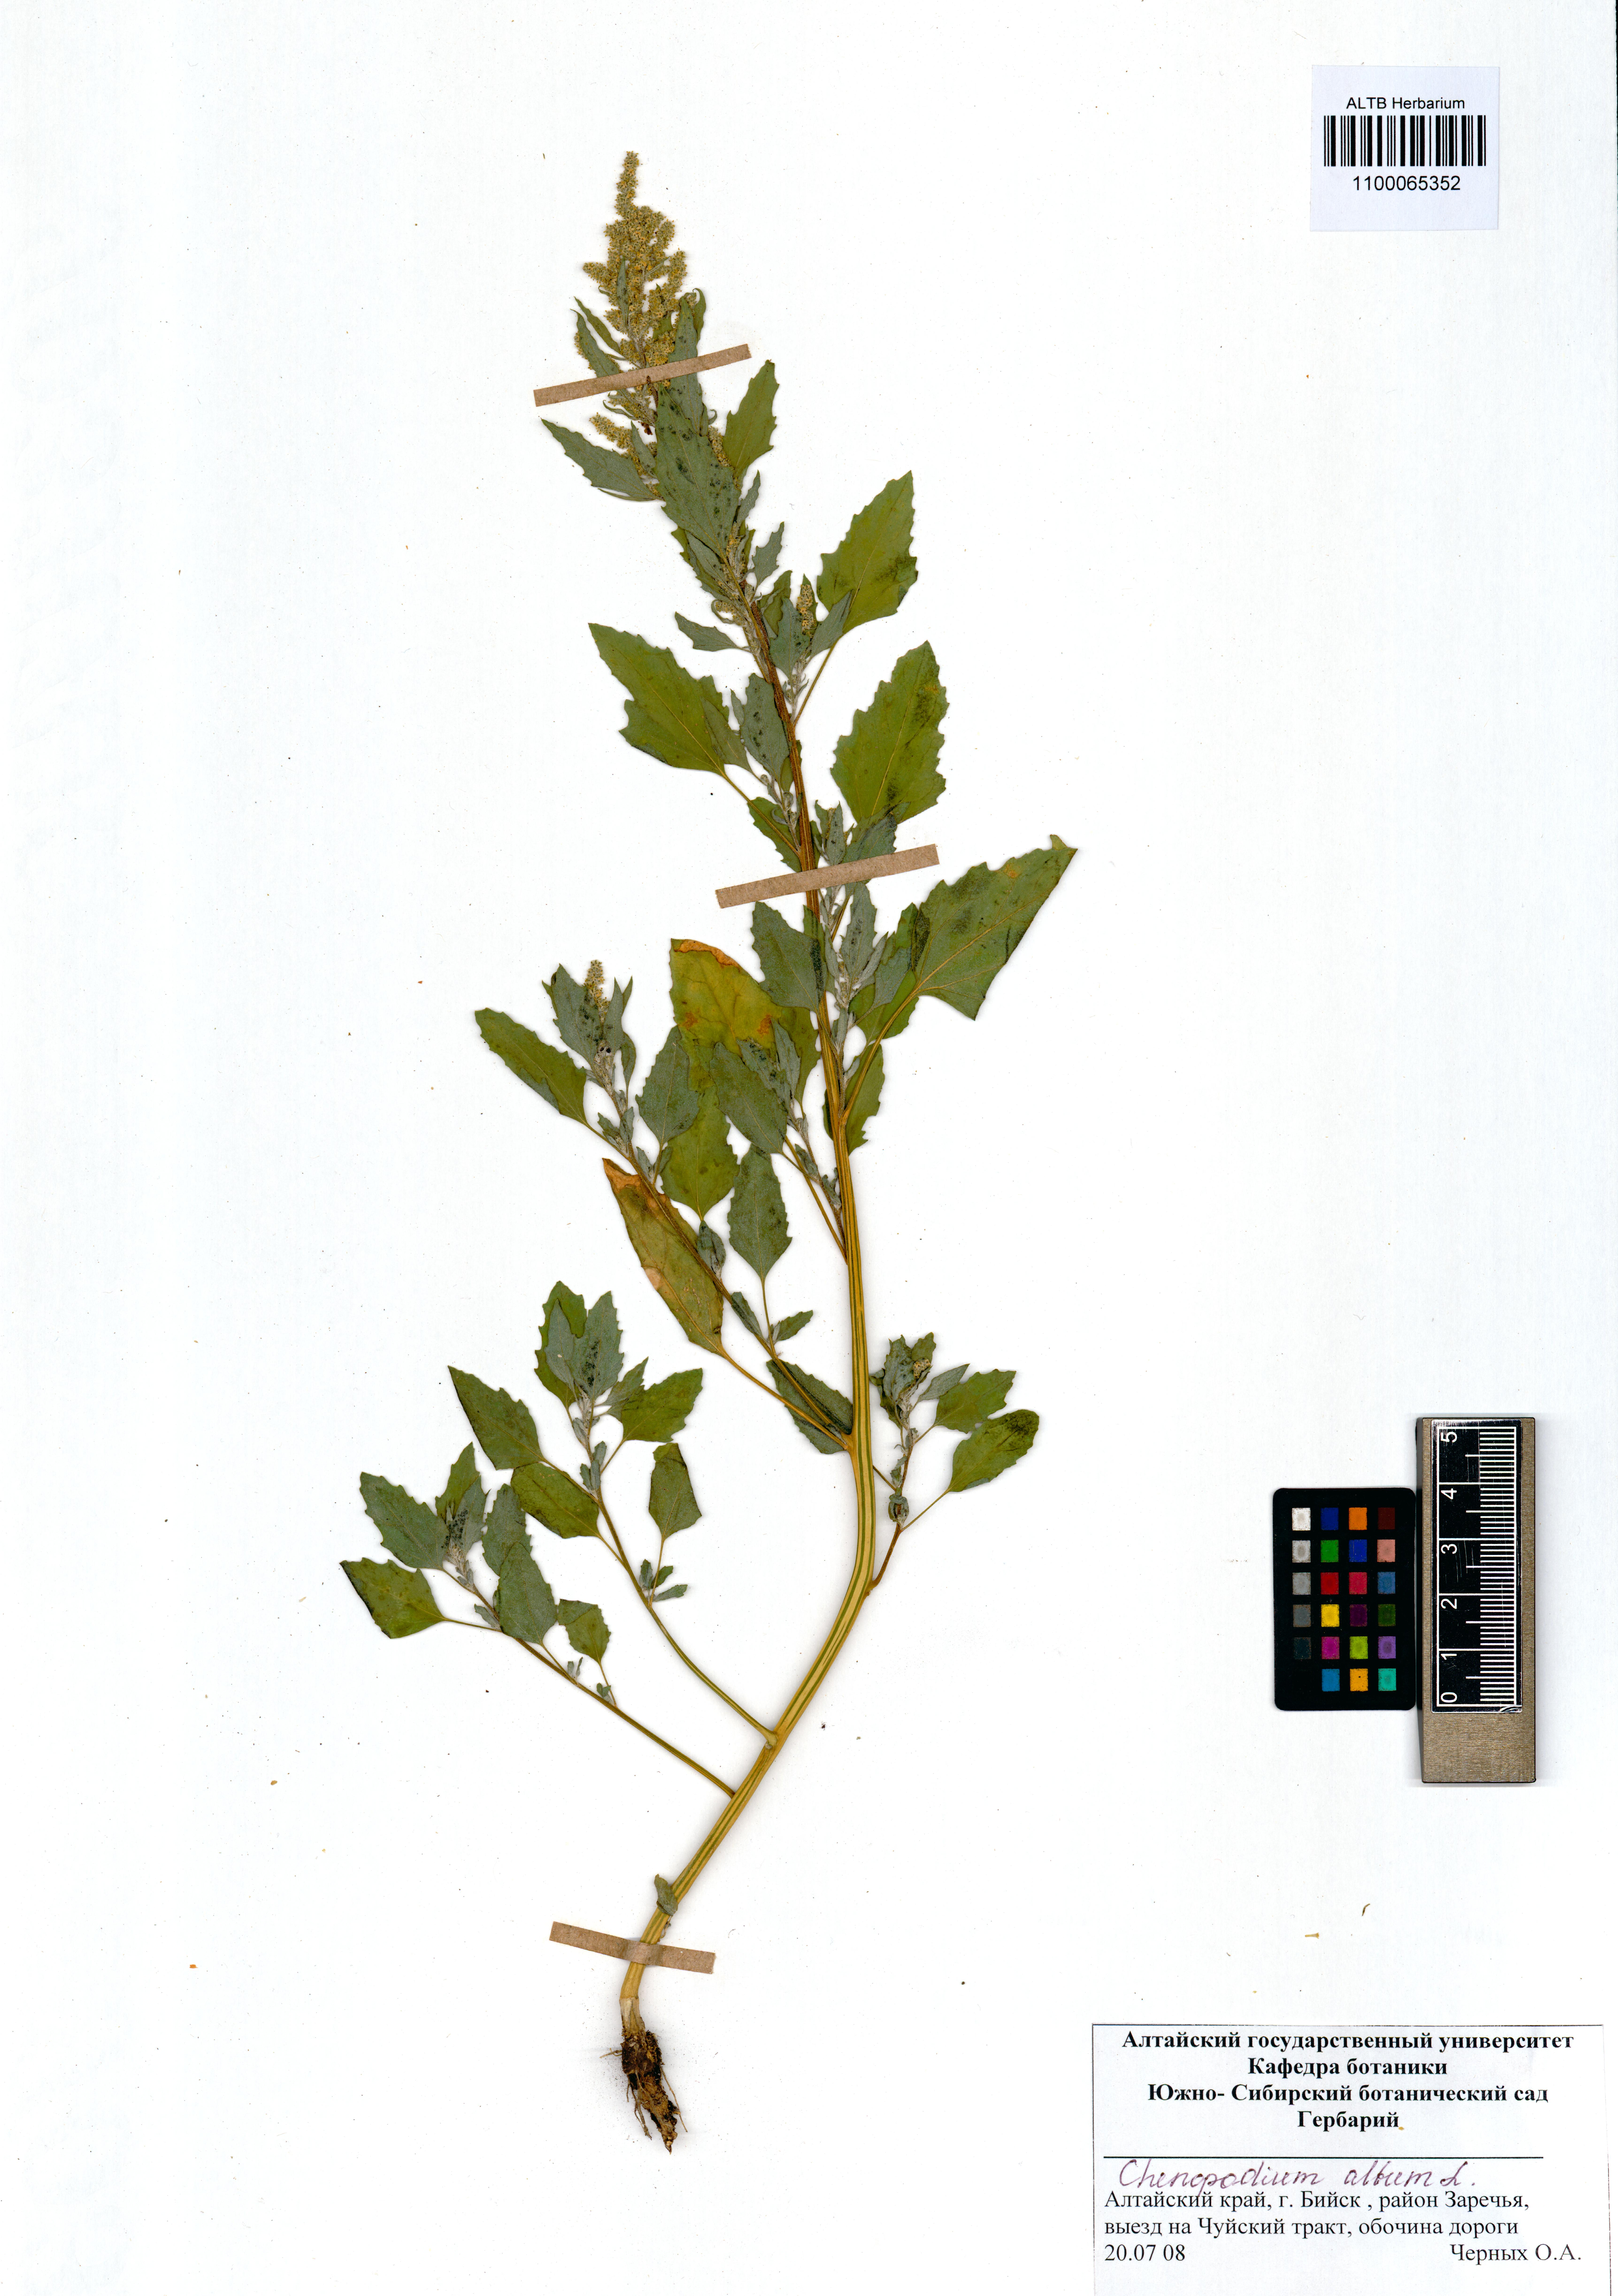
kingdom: Plantae
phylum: Tracheophyta
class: Magnoliopsida
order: Caryophyllales
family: Amaranthaceae
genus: Chenopodium
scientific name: Chenopodium album
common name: Fat-hen
